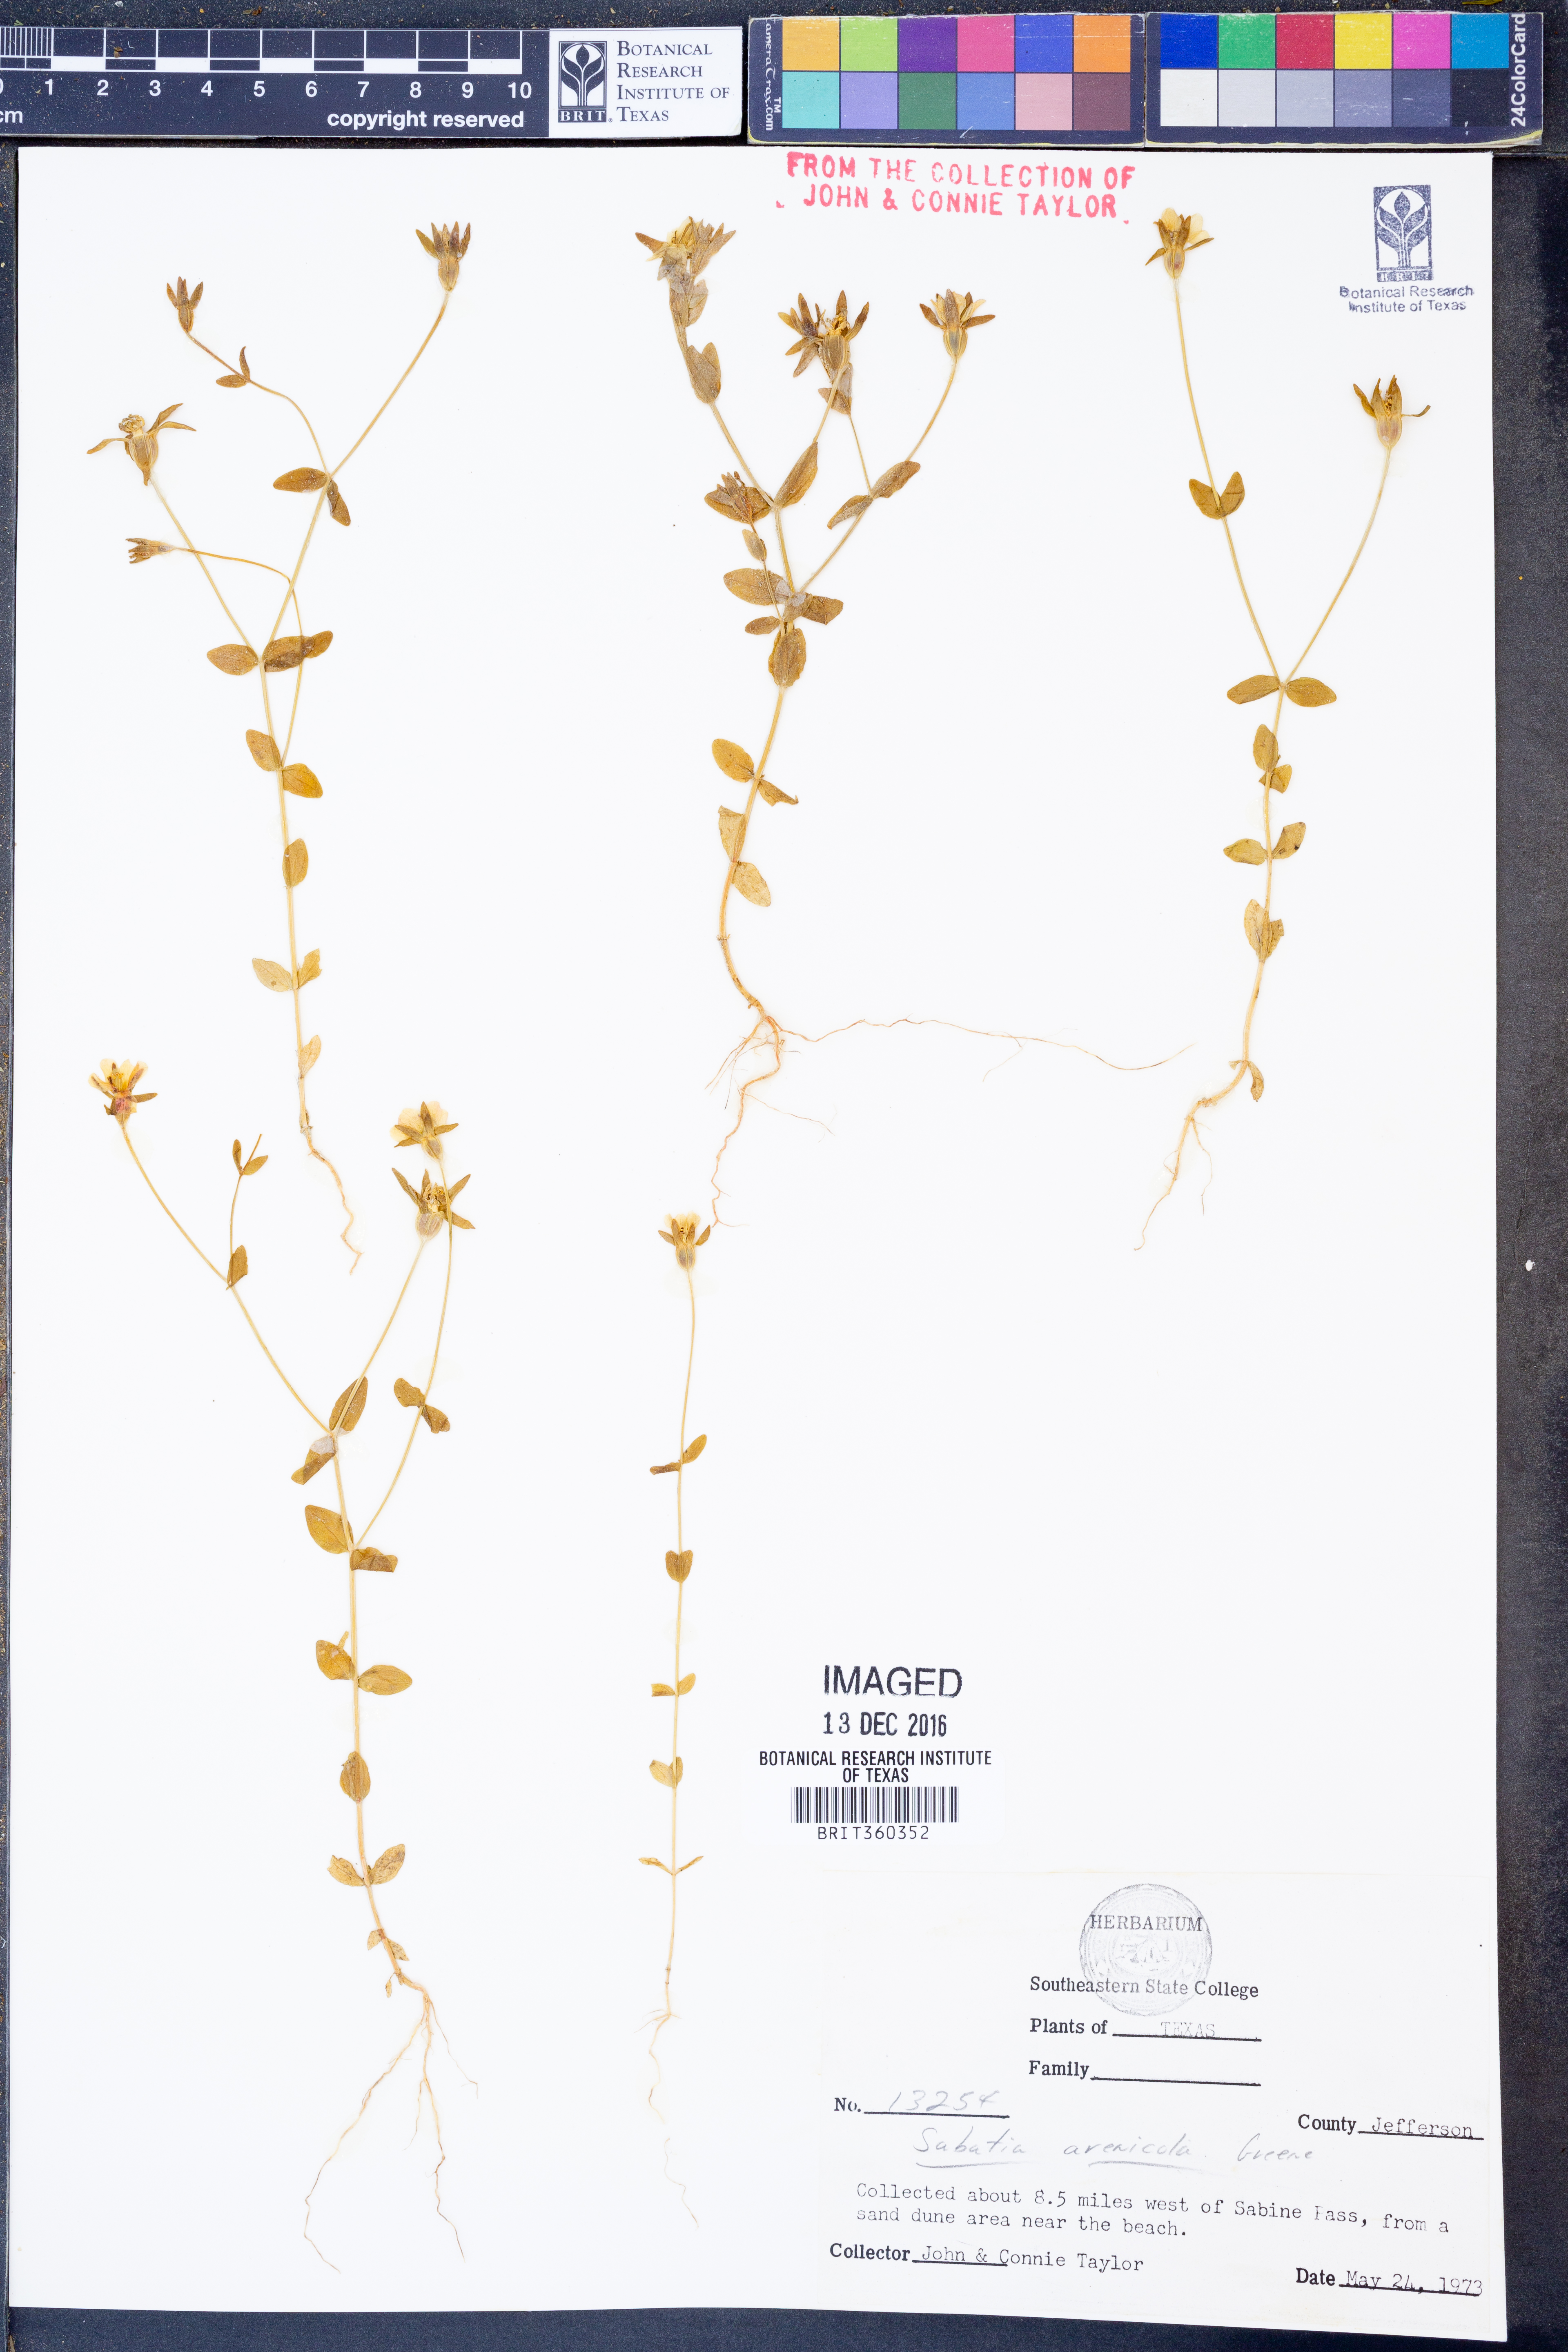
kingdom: Plantae
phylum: Tracheophyta
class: Magnoliopsida
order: Gentianales
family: Gentianaceae
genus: Sabatia
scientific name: Sabatia arenicola
